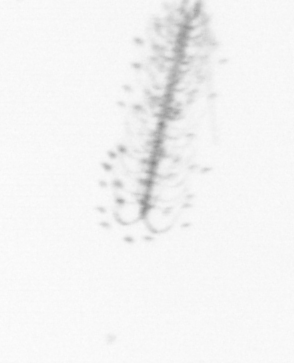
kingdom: Chromista
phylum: Ochrophyta
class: Bacillariophyceae
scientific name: Bacillariophyceae
